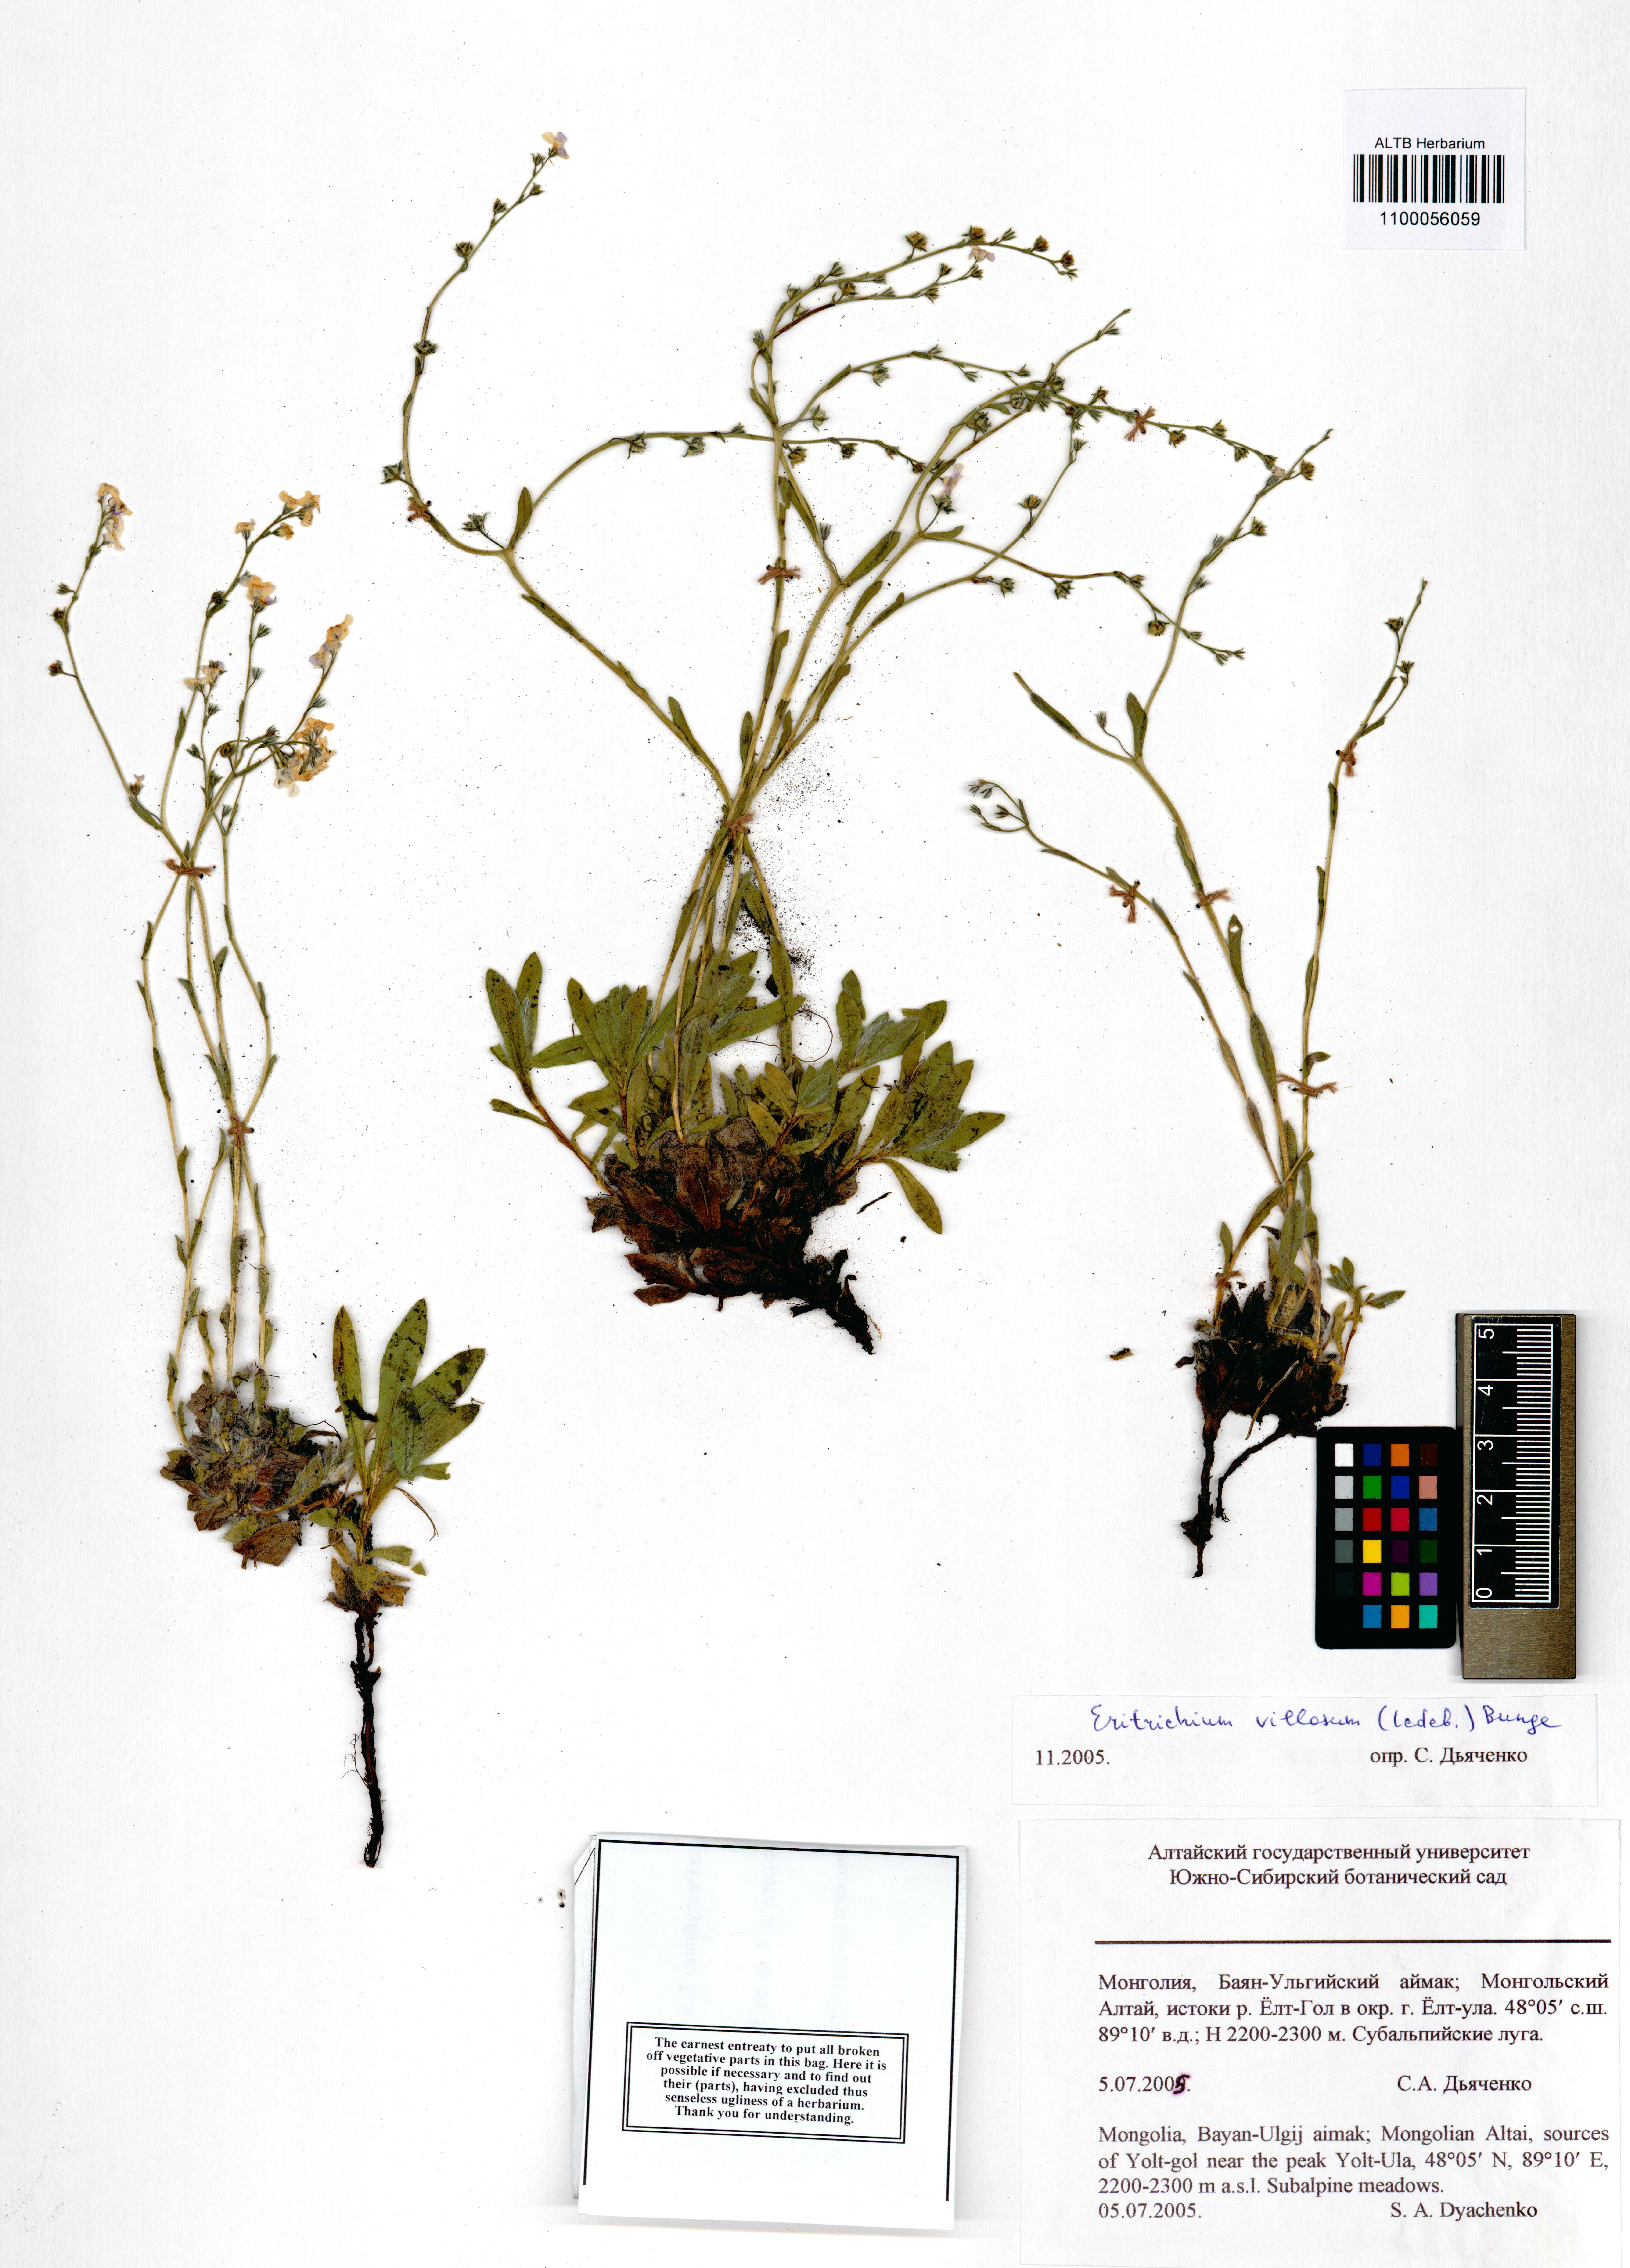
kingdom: Plantae
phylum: Tracheophyta
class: Magnoliopsida
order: Boraginales
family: Boraginaceae
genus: Eritrichium
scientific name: Eritrichium villosum
